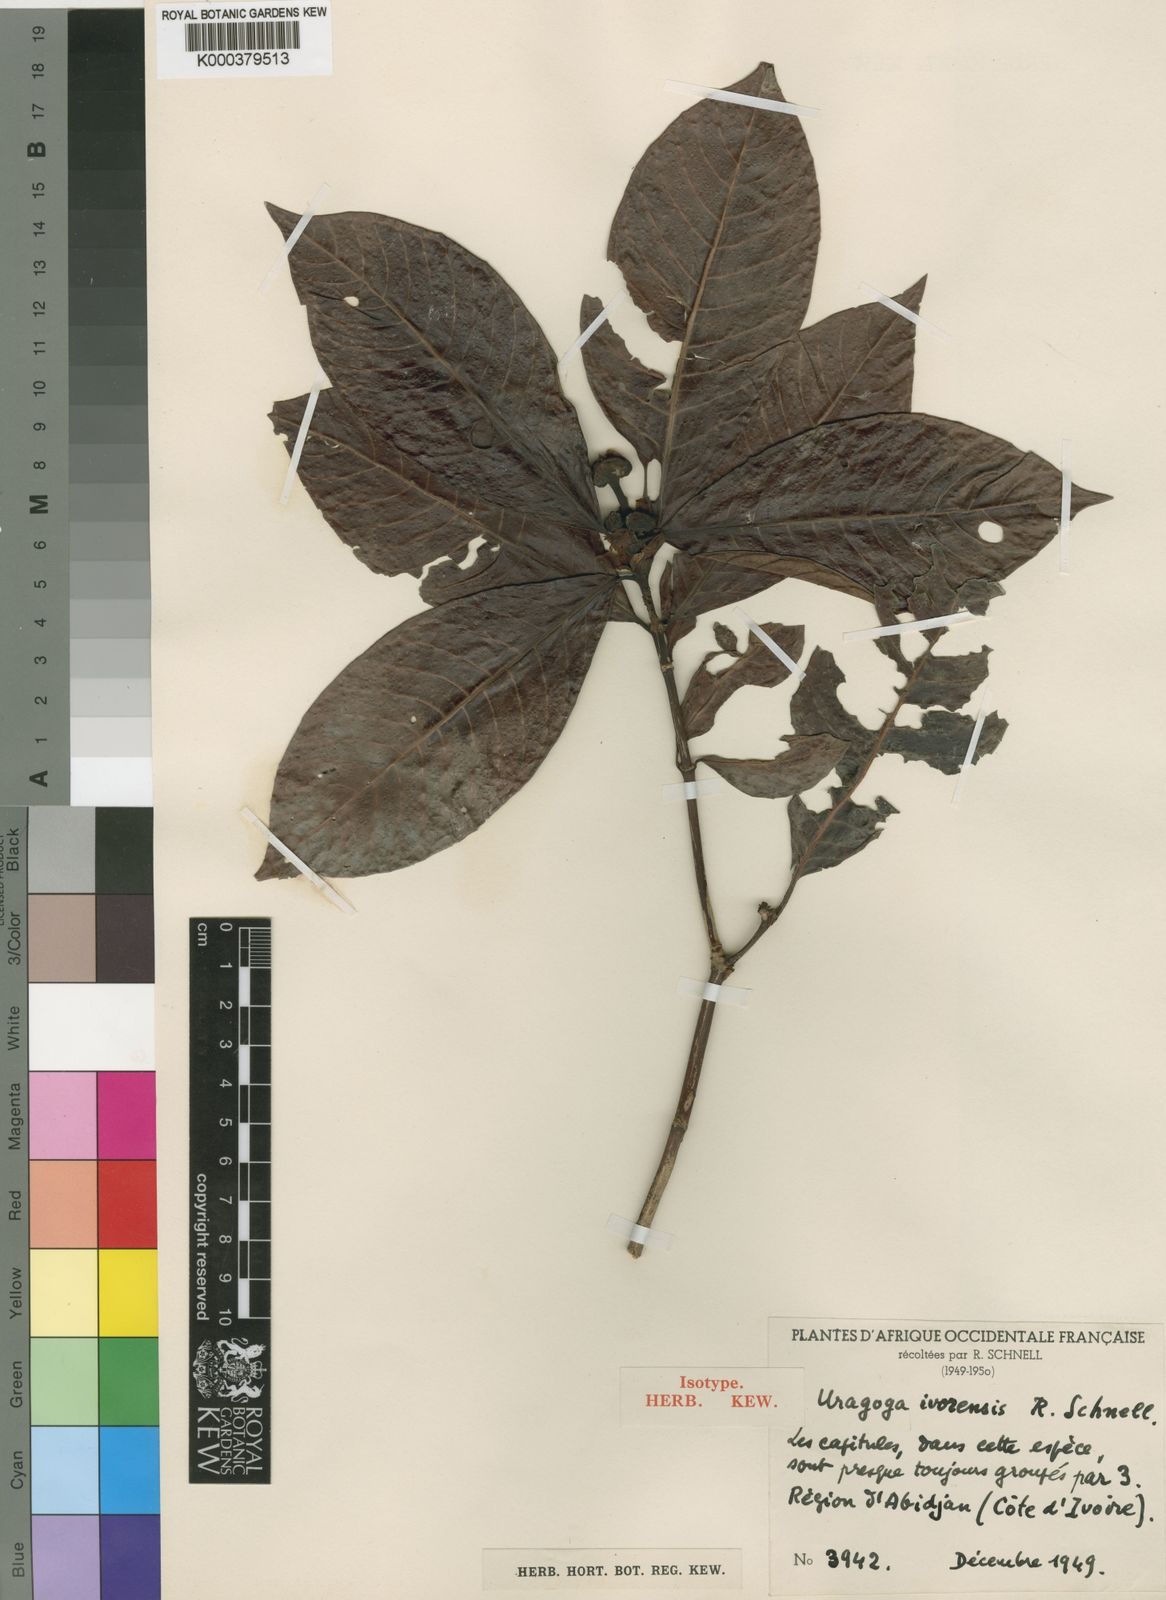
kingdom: Plantae
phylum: Tracheophyta
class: Magnoliopsida
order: Gentianales
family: Rubiaceae
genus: Psychotria
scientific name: Psychotria peduncularis
